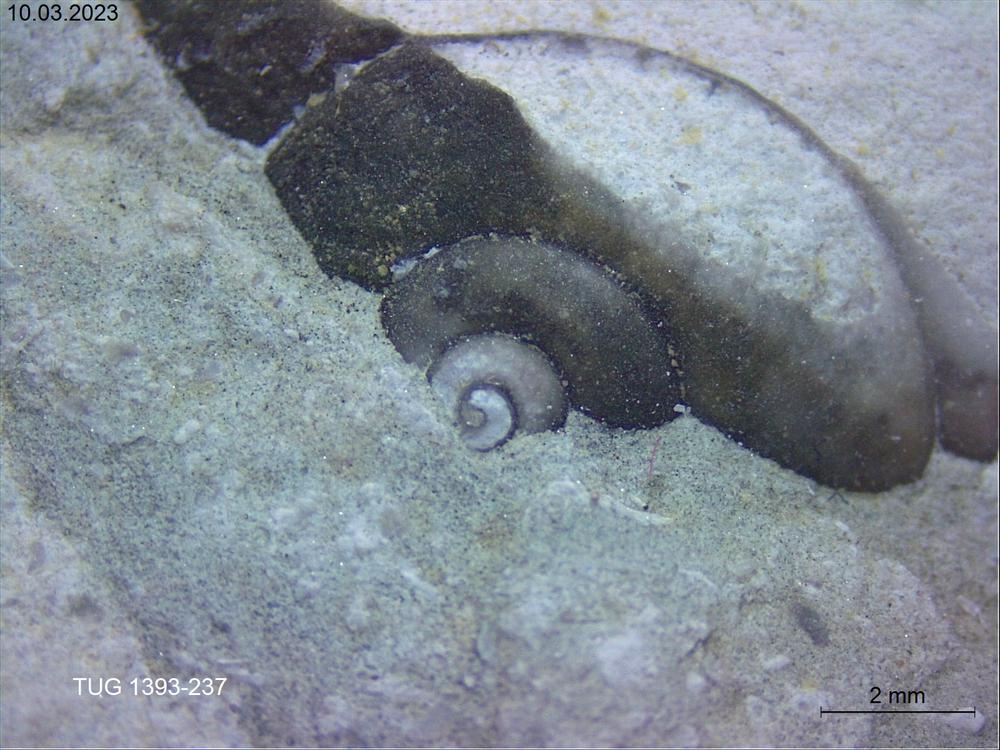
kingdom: Animalia
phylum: Mollusca
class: Gastropoda
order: Pleurotomariida
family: Eotomariidae
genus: Pseudocryptaenia
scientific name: Pseudocryptaenia Pleurotomaria lahuseni
